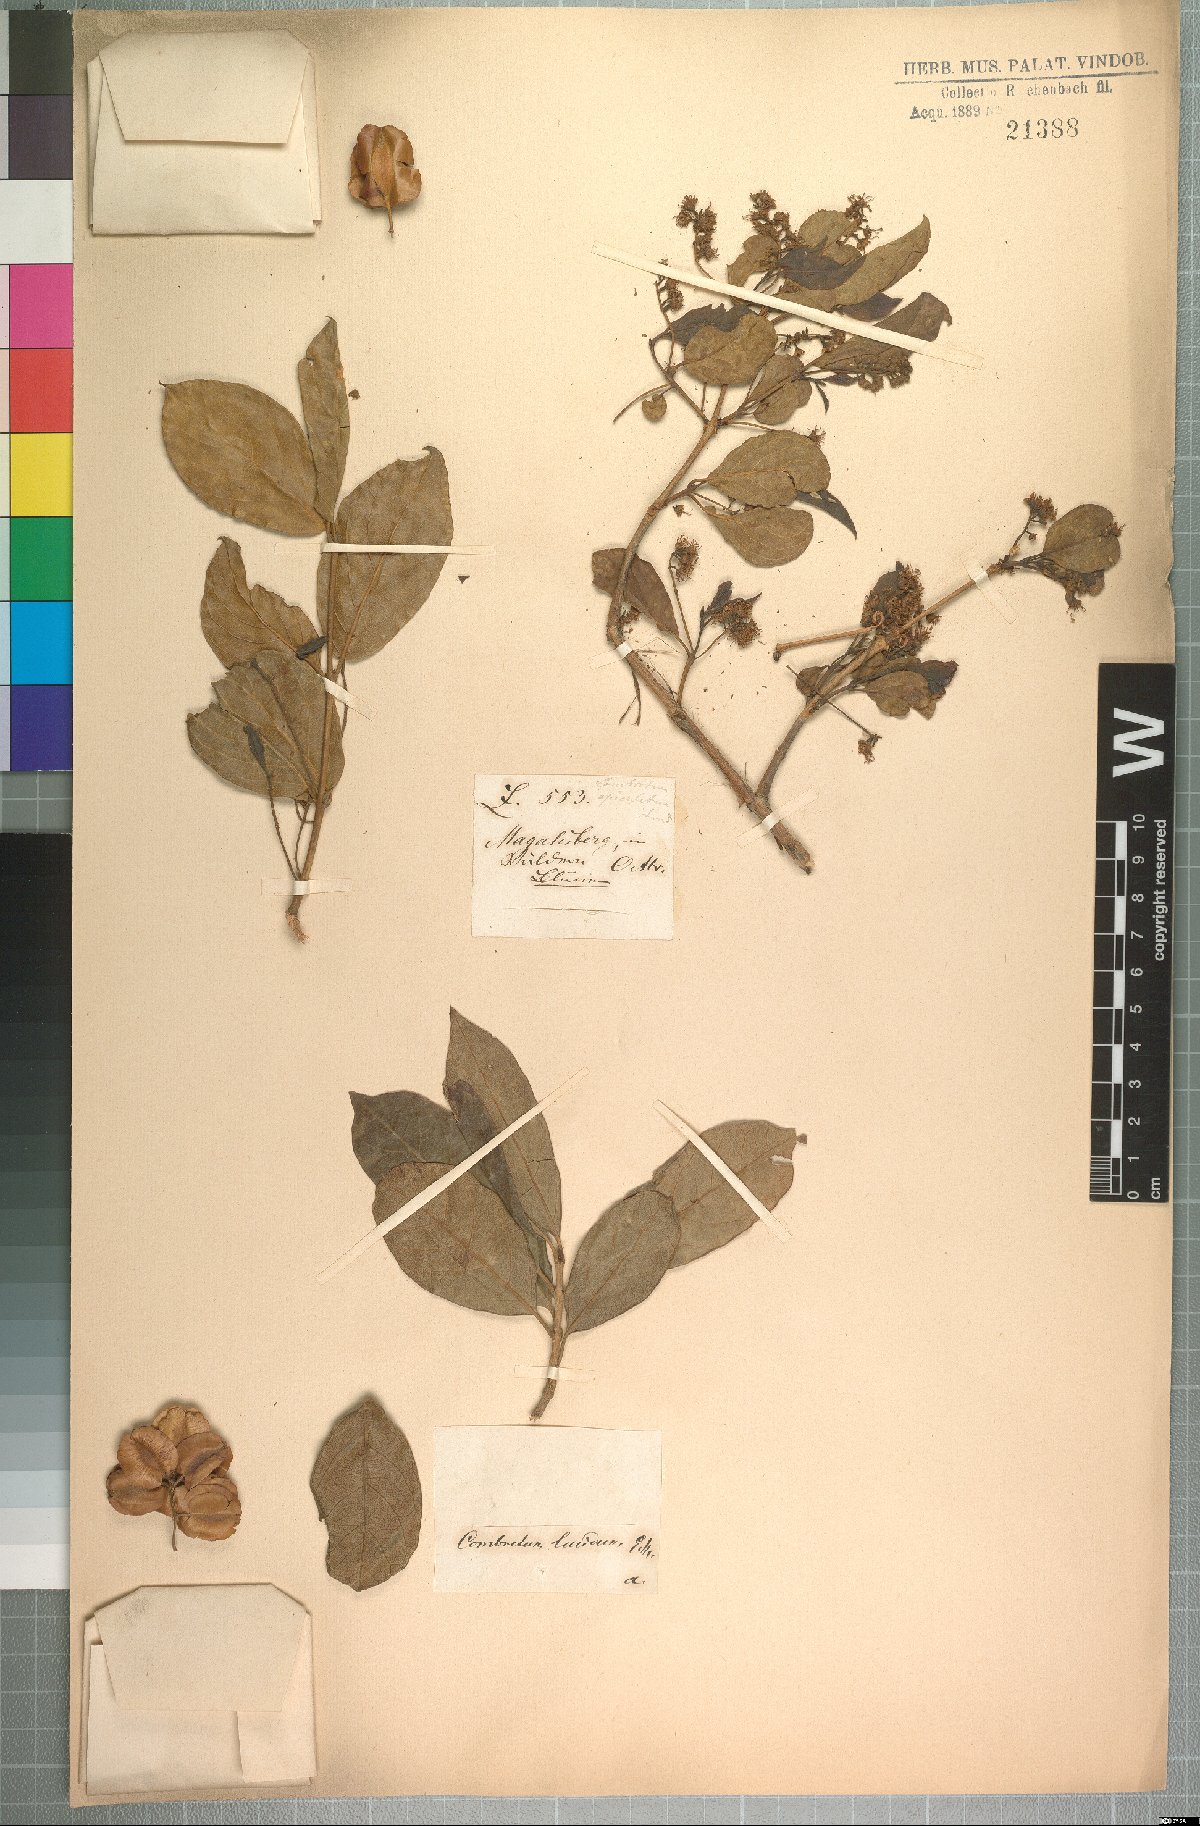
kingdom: Plantae
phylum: Tracheophyta
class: Magnoliopsida
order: Myrtales
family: Combretaceae
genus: Combretum
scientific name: Combretum apiculatum
